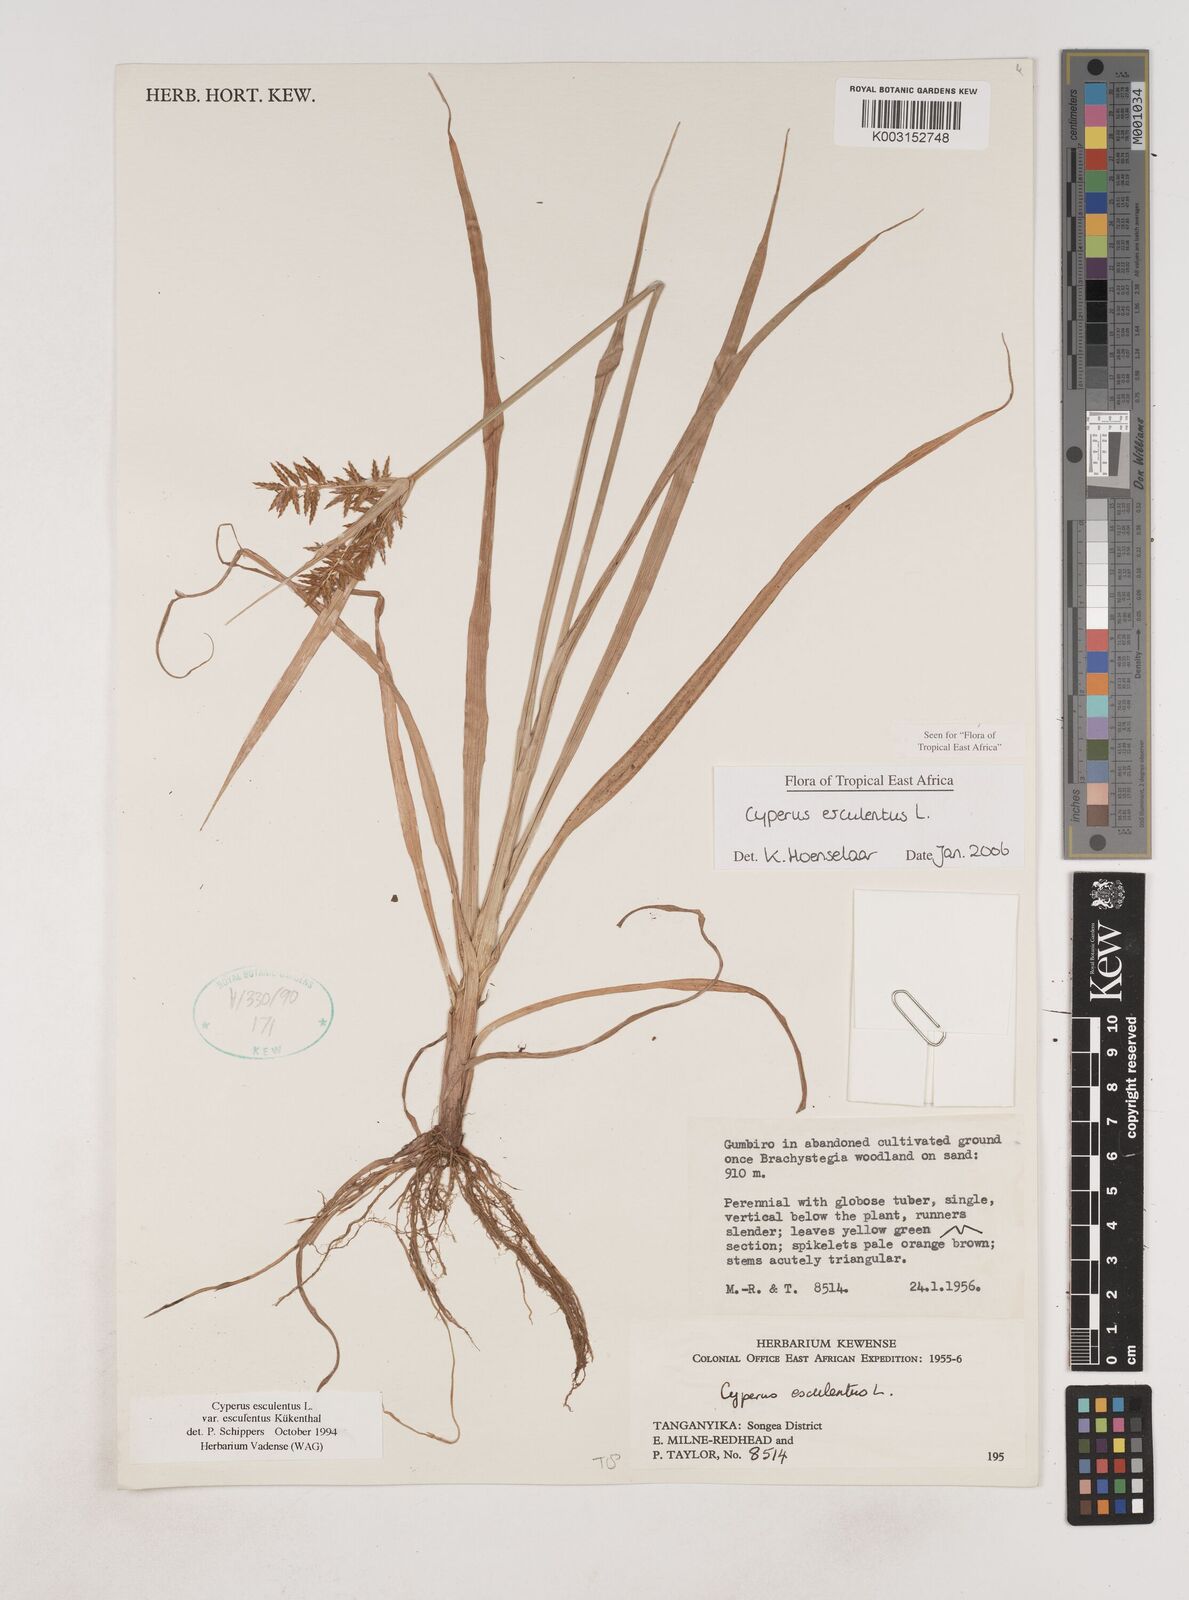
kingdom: Plantae
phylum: Tracheophyta
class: Liliopsida
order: Poales
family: Cyperaceae
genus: Cyperus
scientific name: Cyperus esculentus
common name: Yellow nutsedge
